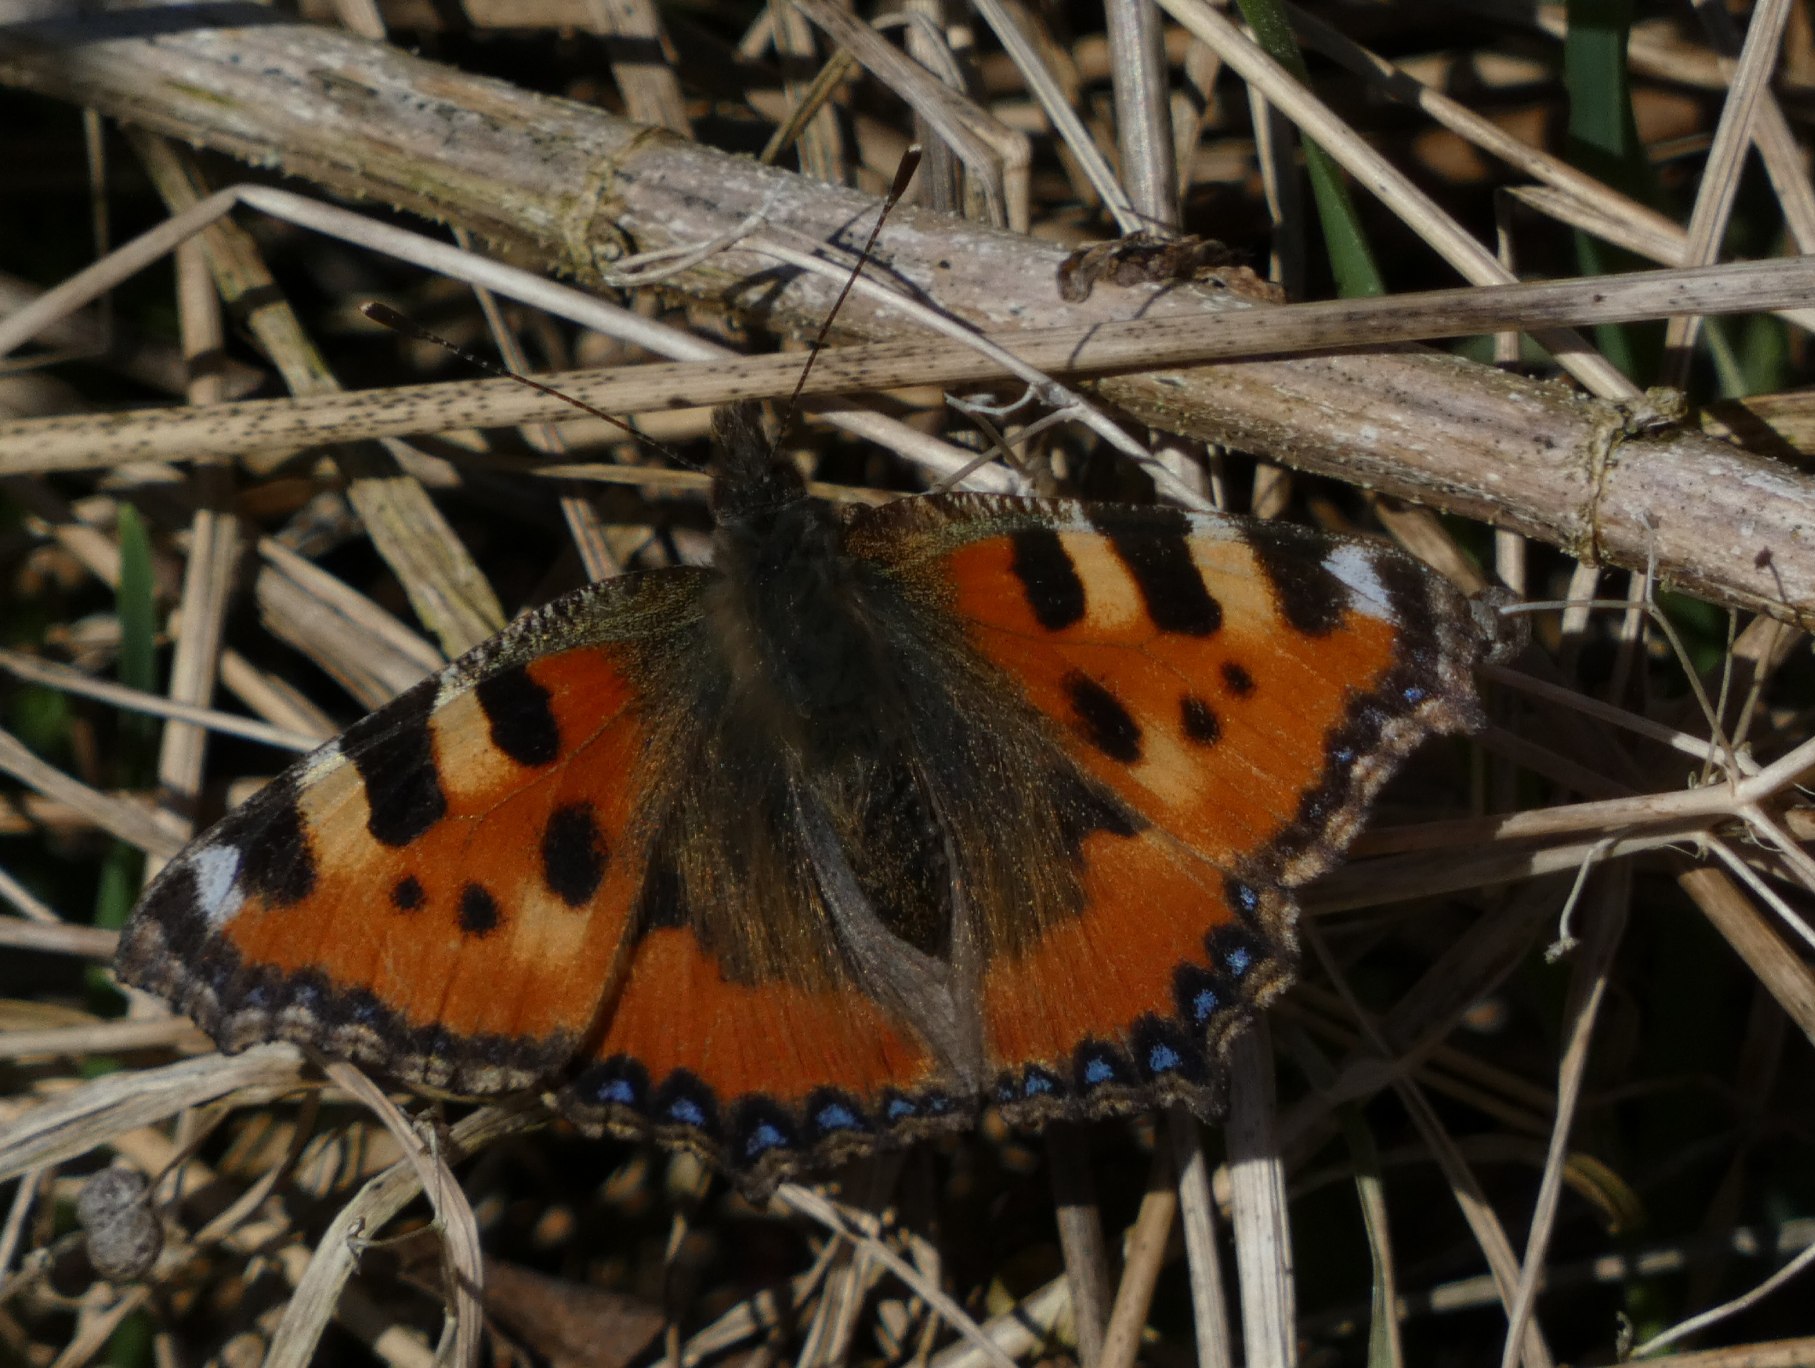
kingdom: Animalia
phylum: Arthropoda
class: Insecta
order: Lepidoptera
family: Nymphalidae
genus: Aglais
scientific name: Aglais urticae
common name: Nældens takvinge
